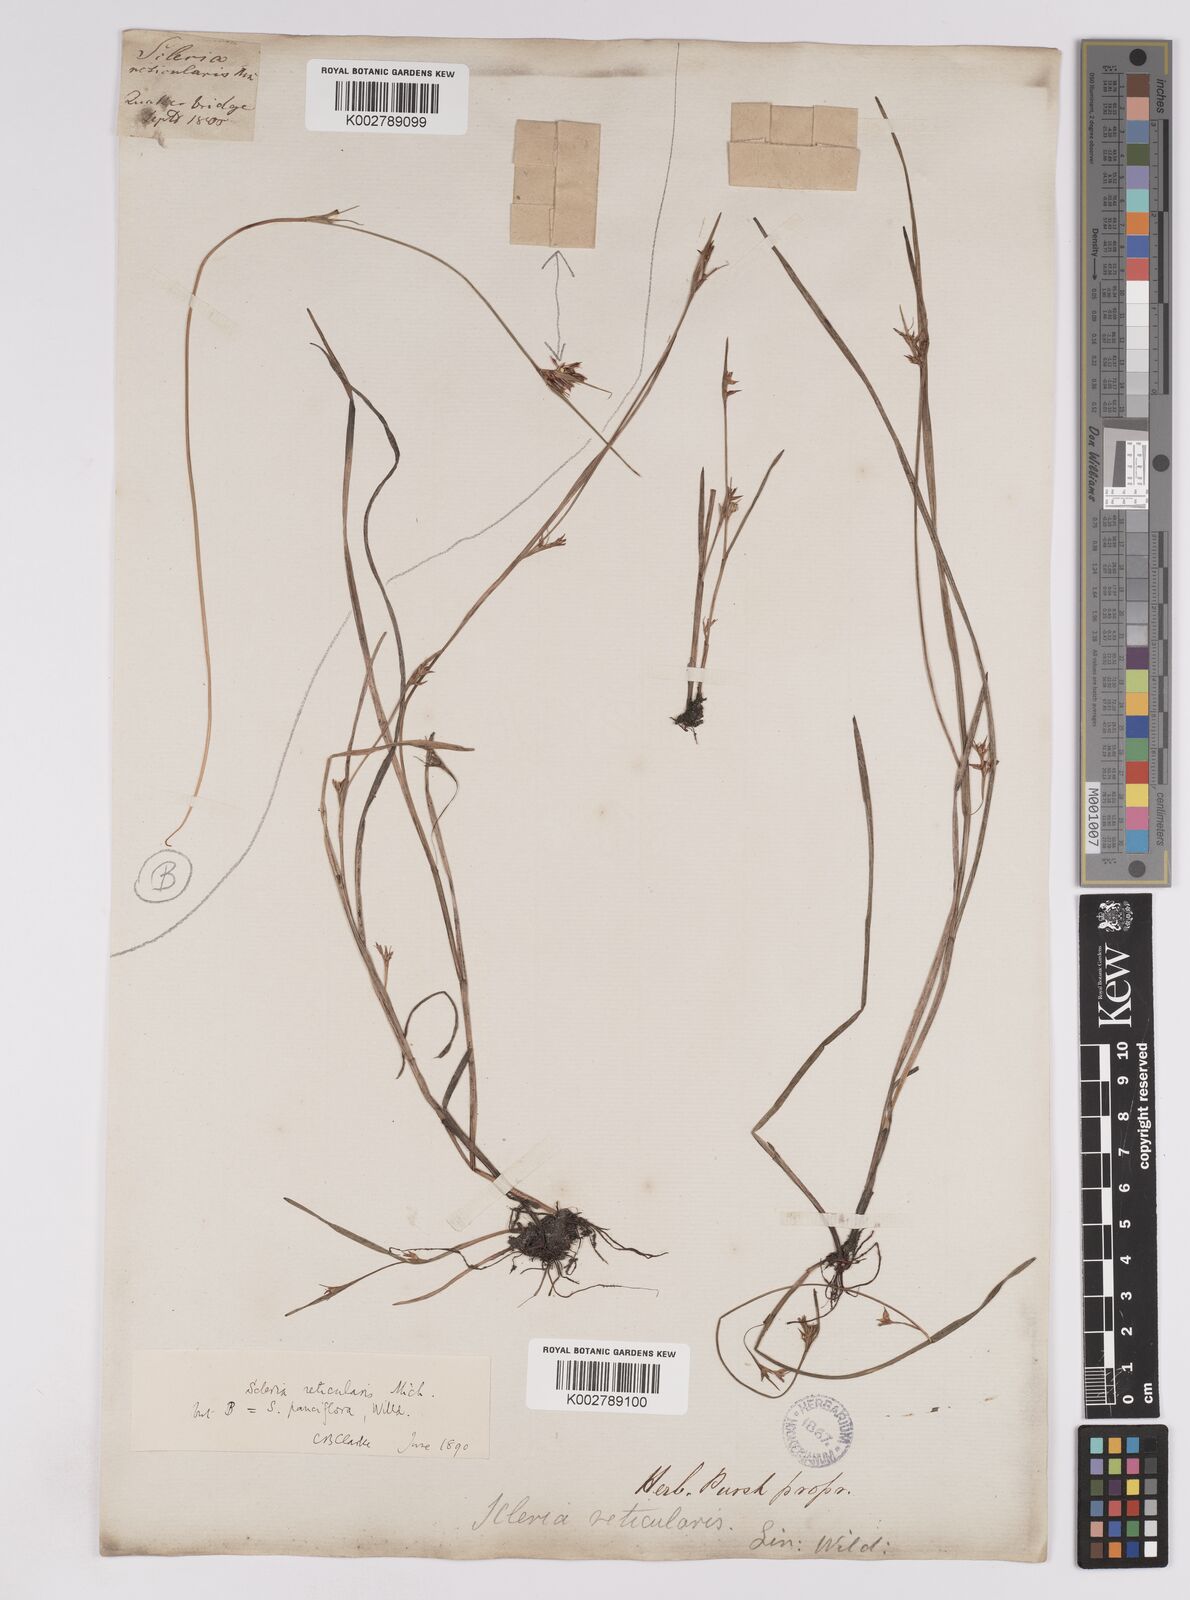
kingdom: Plantae
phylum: Tracheophyta
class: Liliopsida
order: Poales
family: Cyperaceae
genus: Scleria
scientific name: Scleria muehlenbergii
